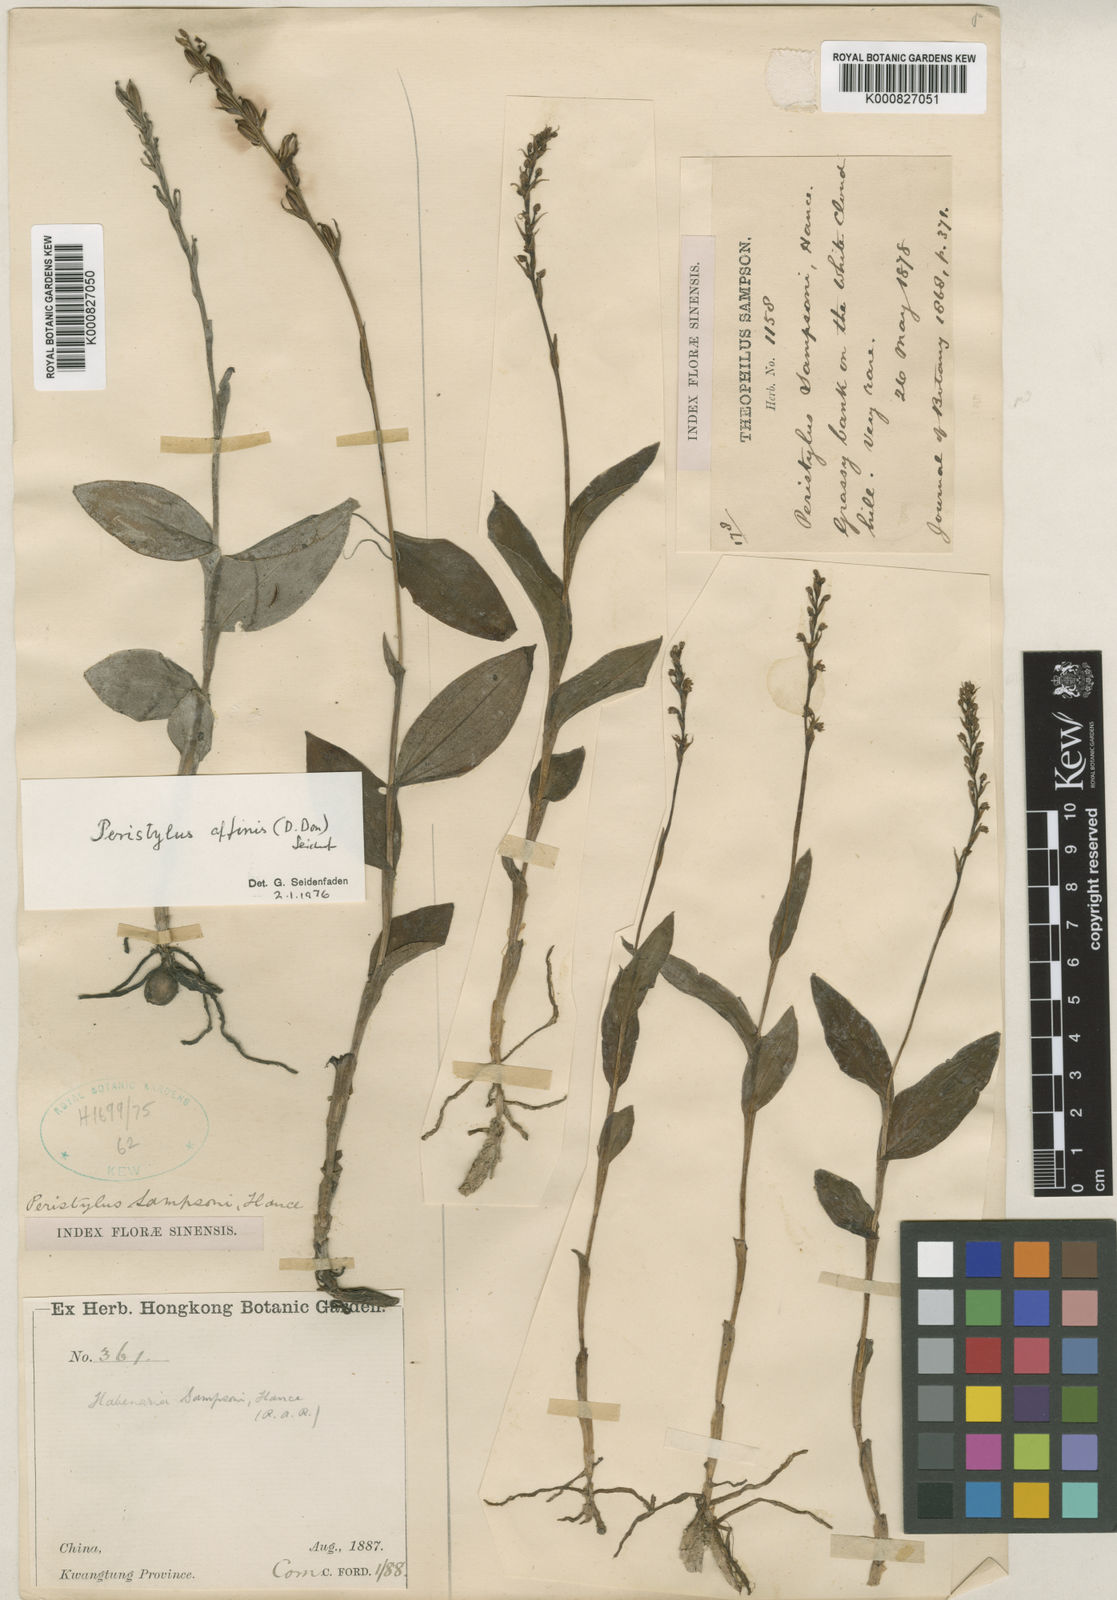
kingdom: Plantae
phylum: Tracheophyta
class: Liliopsida
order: Asparagales
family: Orchidaceae
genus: Peristylus
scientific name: Peristylus affinis
